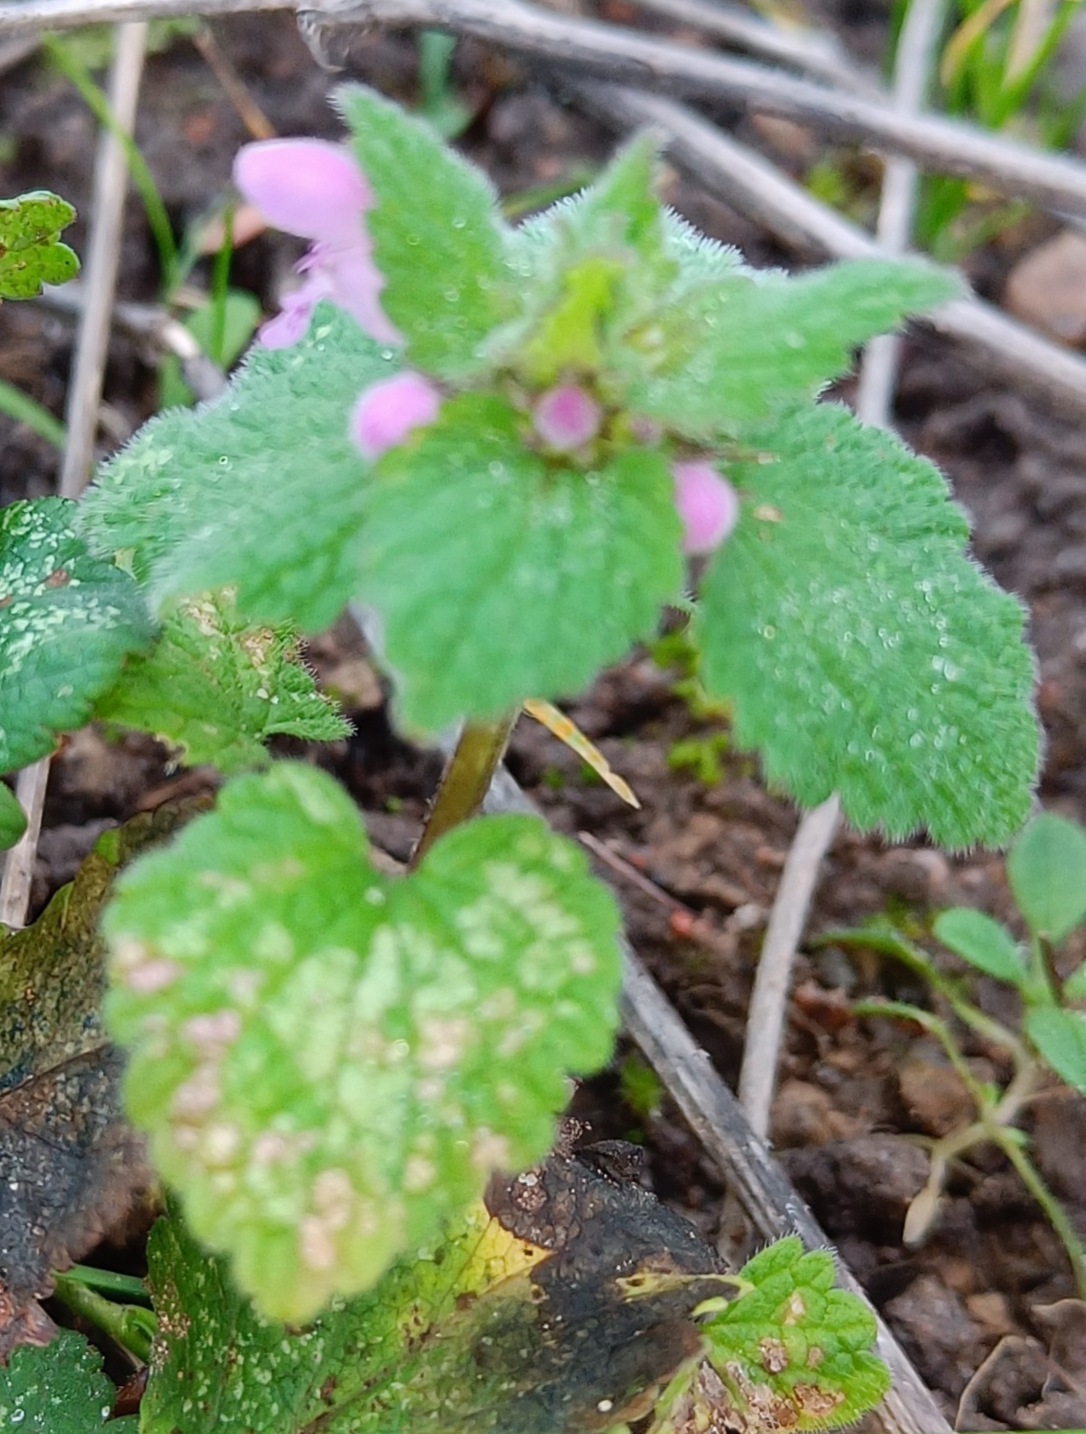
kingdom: Plantae
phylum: Tracheophyta
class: Magnoliopsida
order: Lamiales
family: Lamiaceae
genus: Lamium
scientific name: Lamium purpureum
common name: Rød tvetand
